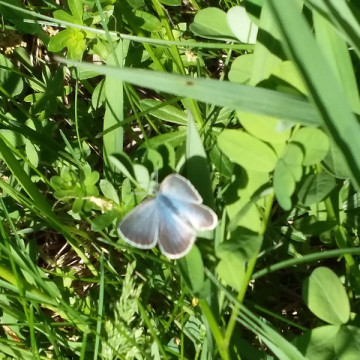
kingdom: Animalia
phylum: Arthropoda
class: Insecta
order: Lepidoptera
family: Lycaenidae
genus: Glaucopsyche
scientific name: Glaucopsyche lygdamus
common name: Silvery Blue
